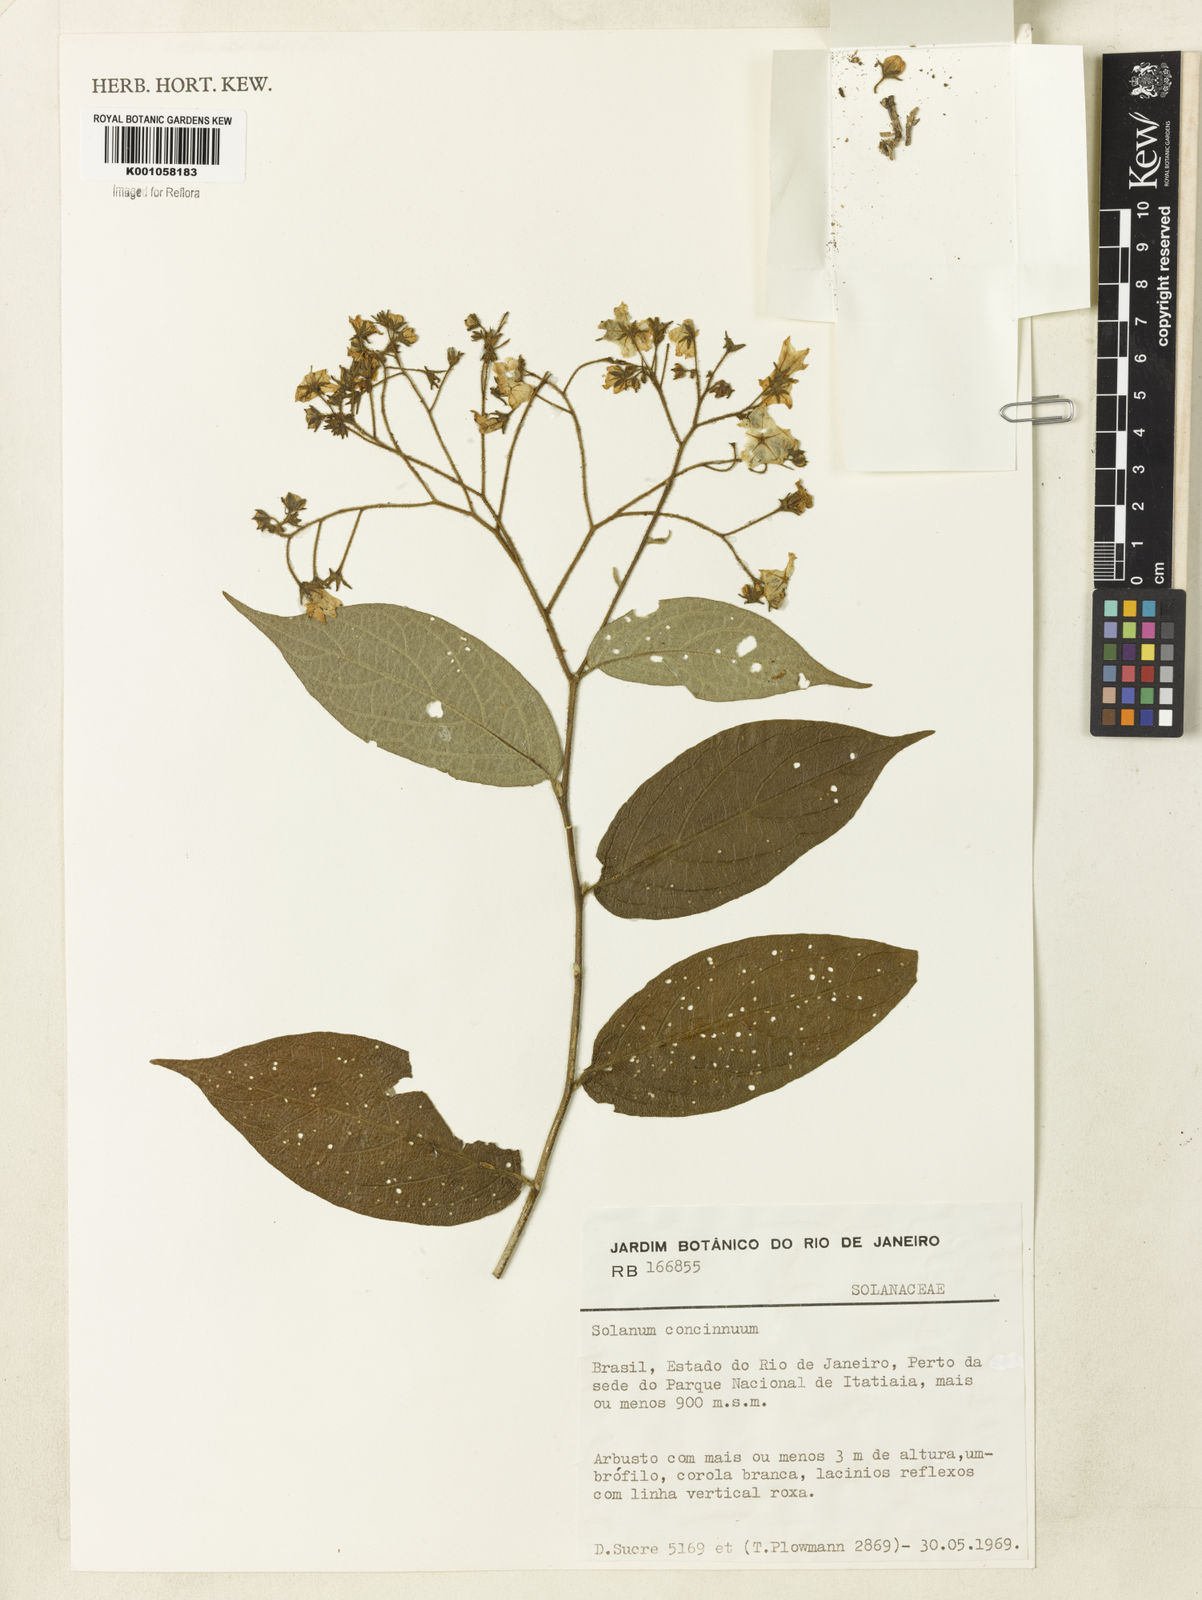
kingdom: Plantae
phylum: Tracheophyta
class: Magnoliopsida
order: Solanales
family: Solanaceae
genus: Solanum
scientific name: Solanum concinnum
